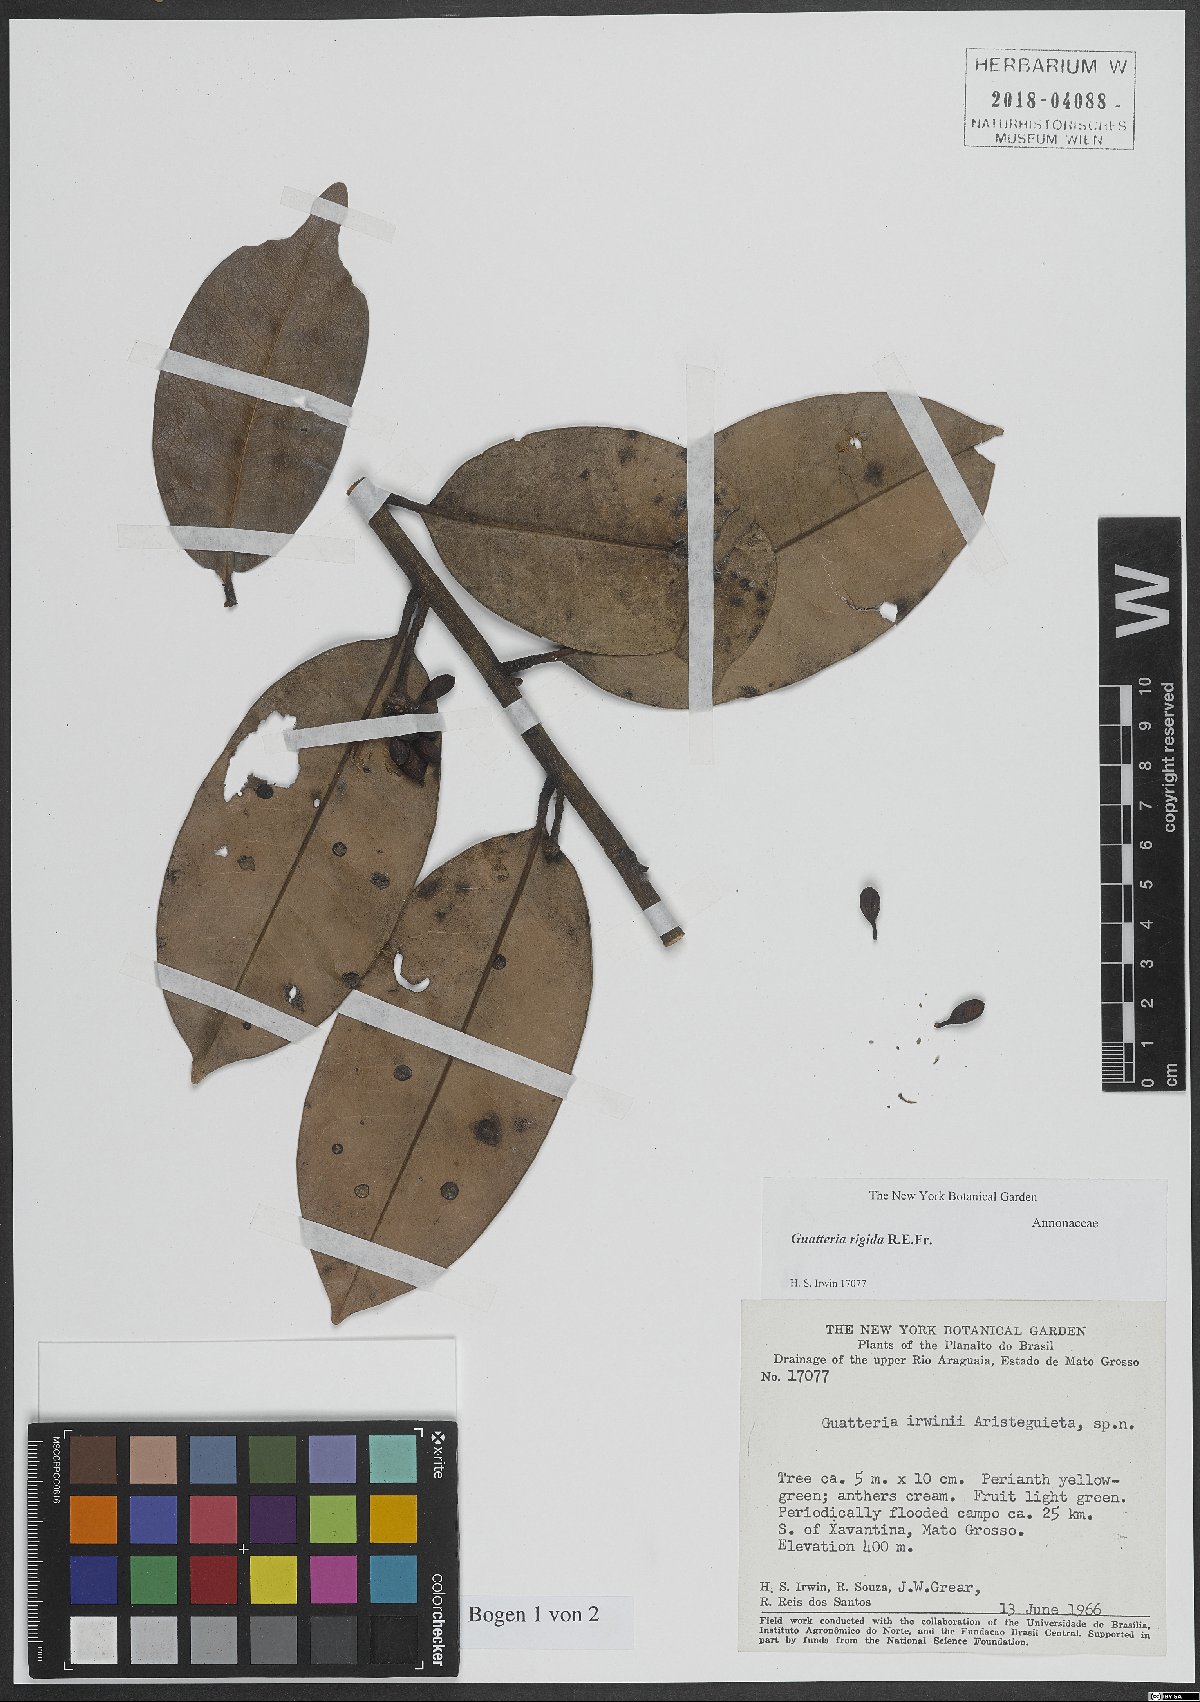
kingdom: Plantae
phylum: Tracheophyta
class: Magnoliopsida
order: Magnoliales
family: Annonaceae
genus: Guatteria
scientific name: Guatteria rigida
